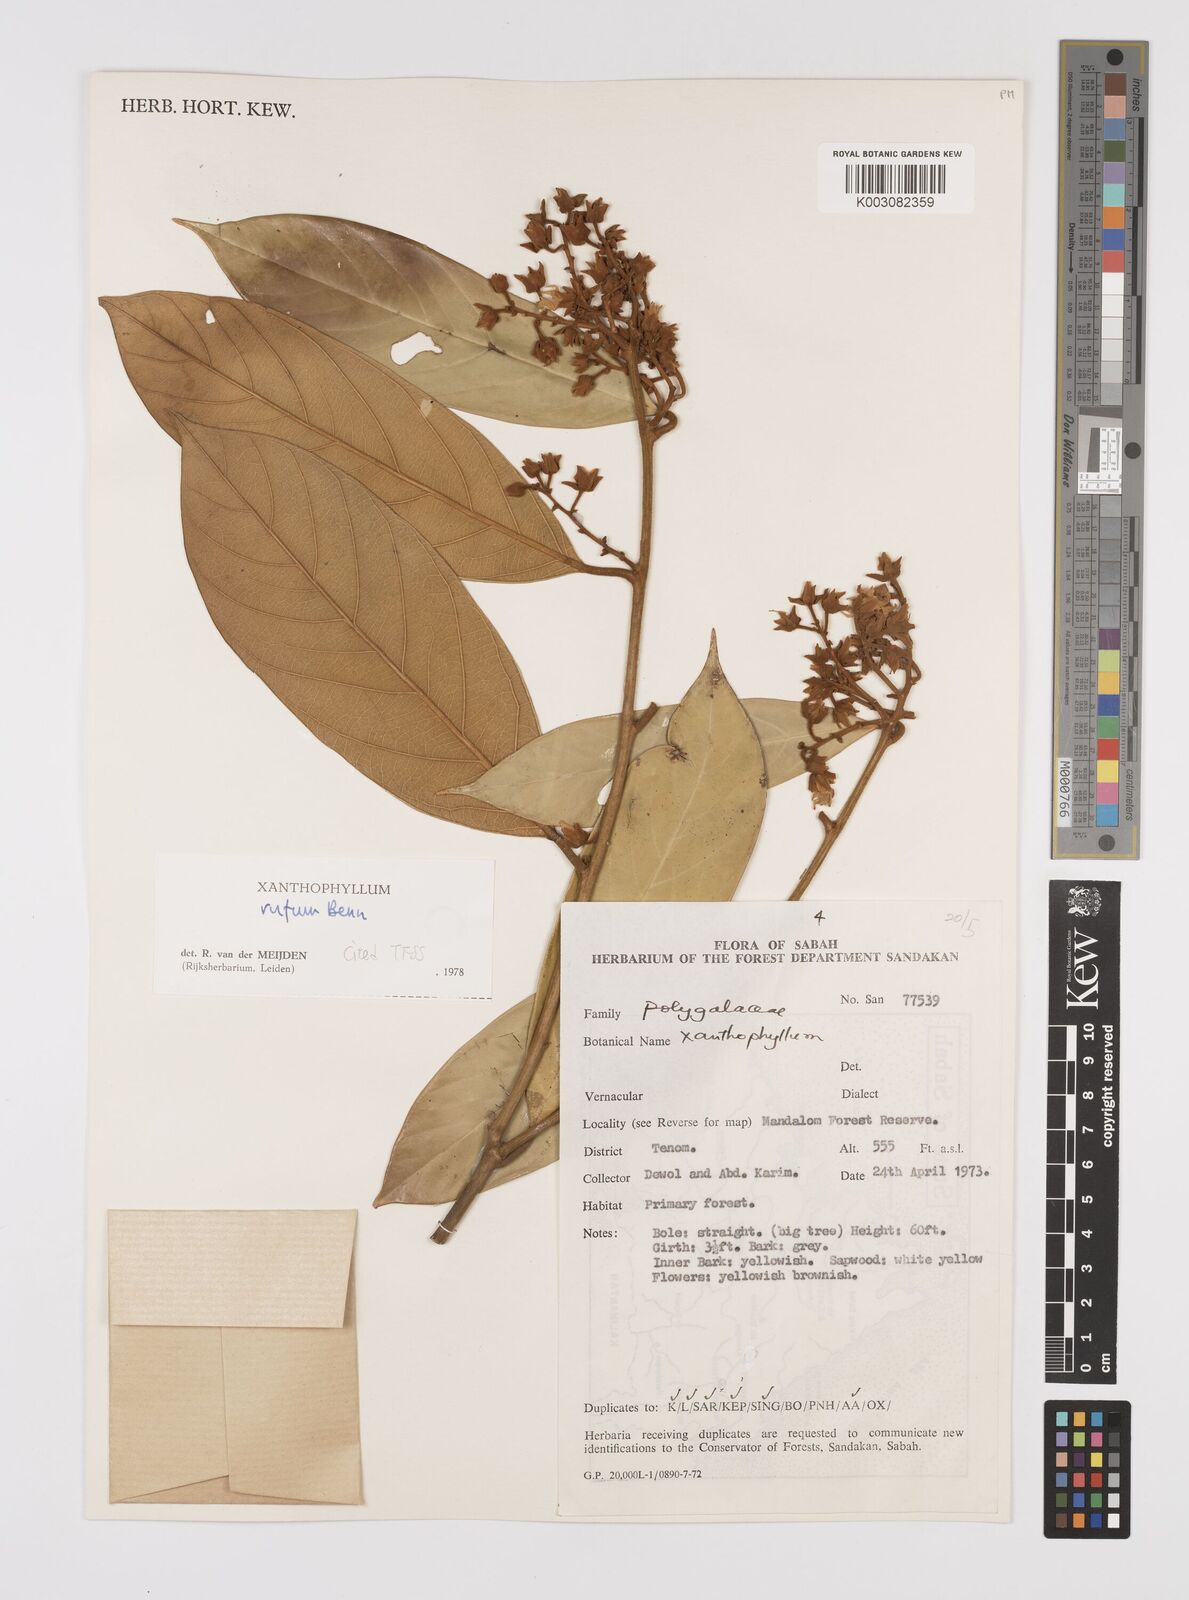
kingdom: Plantae
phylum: Tracheophyta
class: Magnoliopsida
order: Fabales
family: Polygalaceae
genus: Xanthophyllum
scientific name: Xanthophyllum rufum
